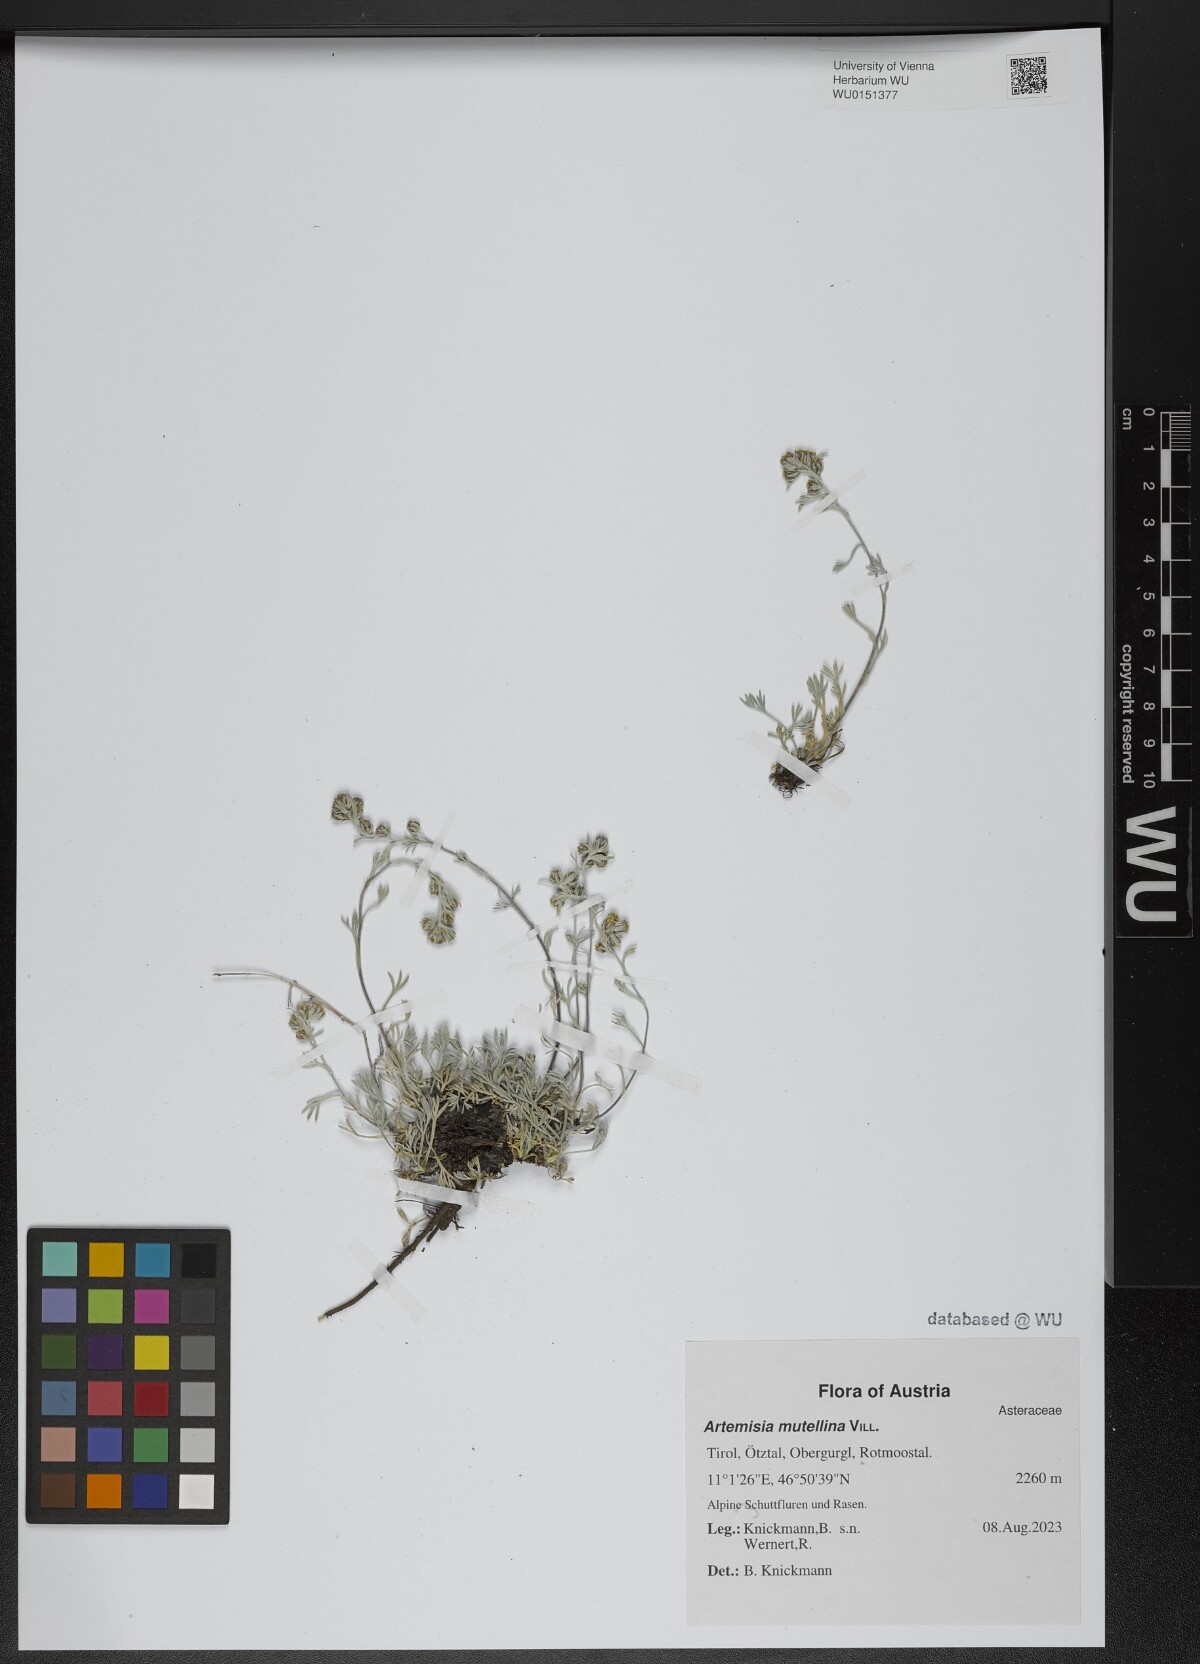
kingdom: Plantae
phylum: Tracheophyta
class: Magnoliopsida
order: Asterales
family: Asteraceae
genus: Artemisia
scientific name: Artemisia mutellina
